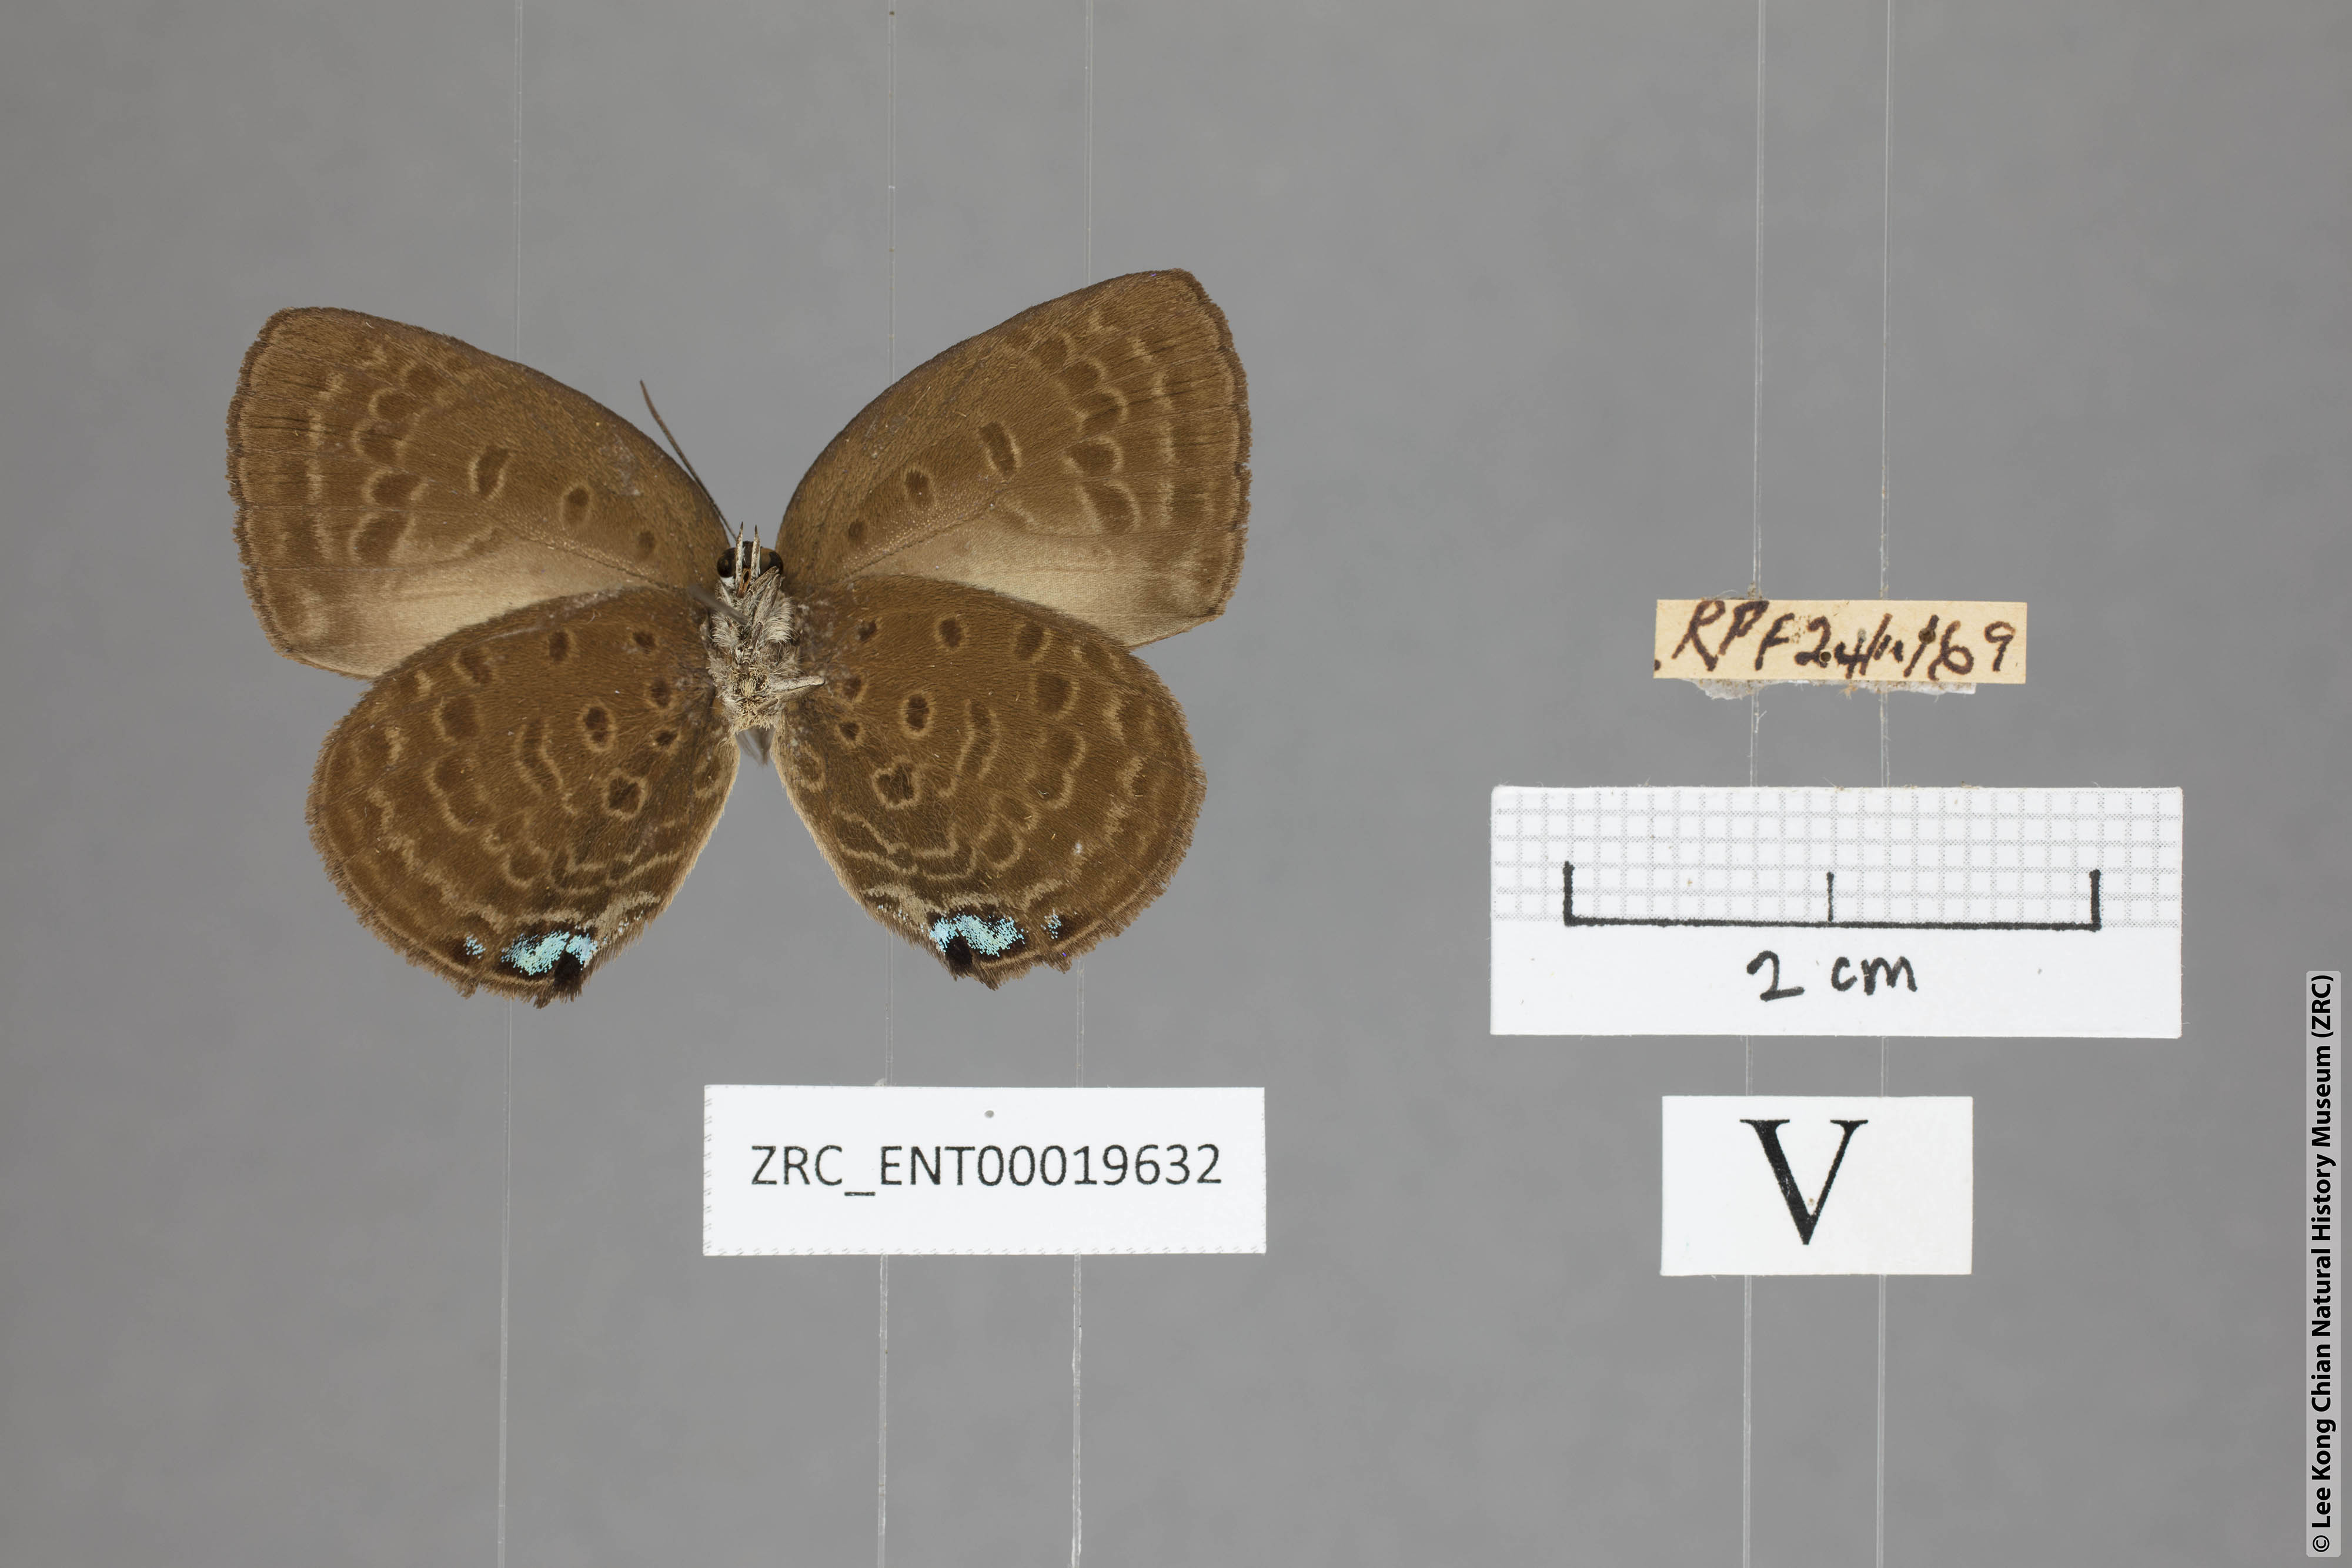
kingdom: Animalia
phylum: Arthropoda
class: Insecta
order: Lepidoptera
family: Lycaenidae
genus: Arhopala
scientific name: Arhopala major
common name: Major yellow oakblue
